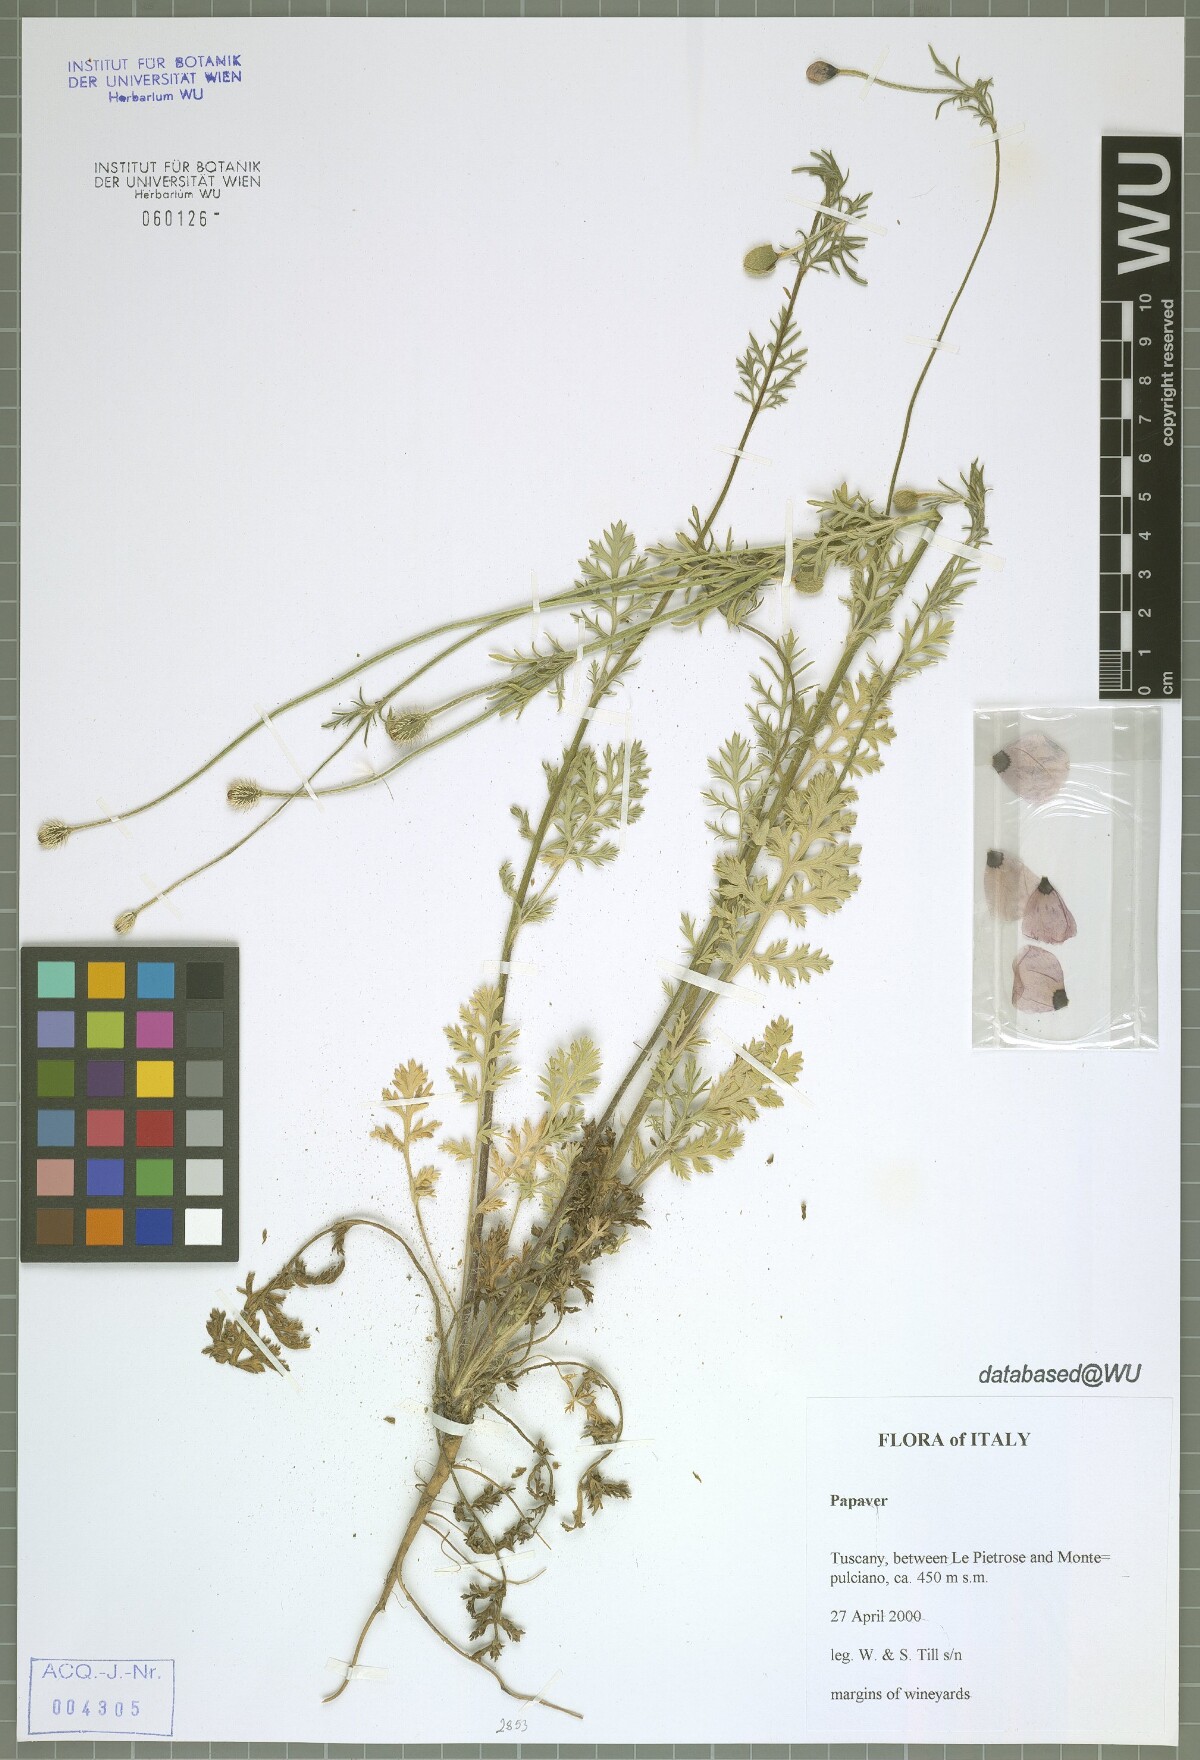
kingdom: Plantae
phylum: Tracheophyta
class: Magnoliopsida
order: Ranunculales
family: Papaveraceae
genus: Papaver
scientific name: Papaver
